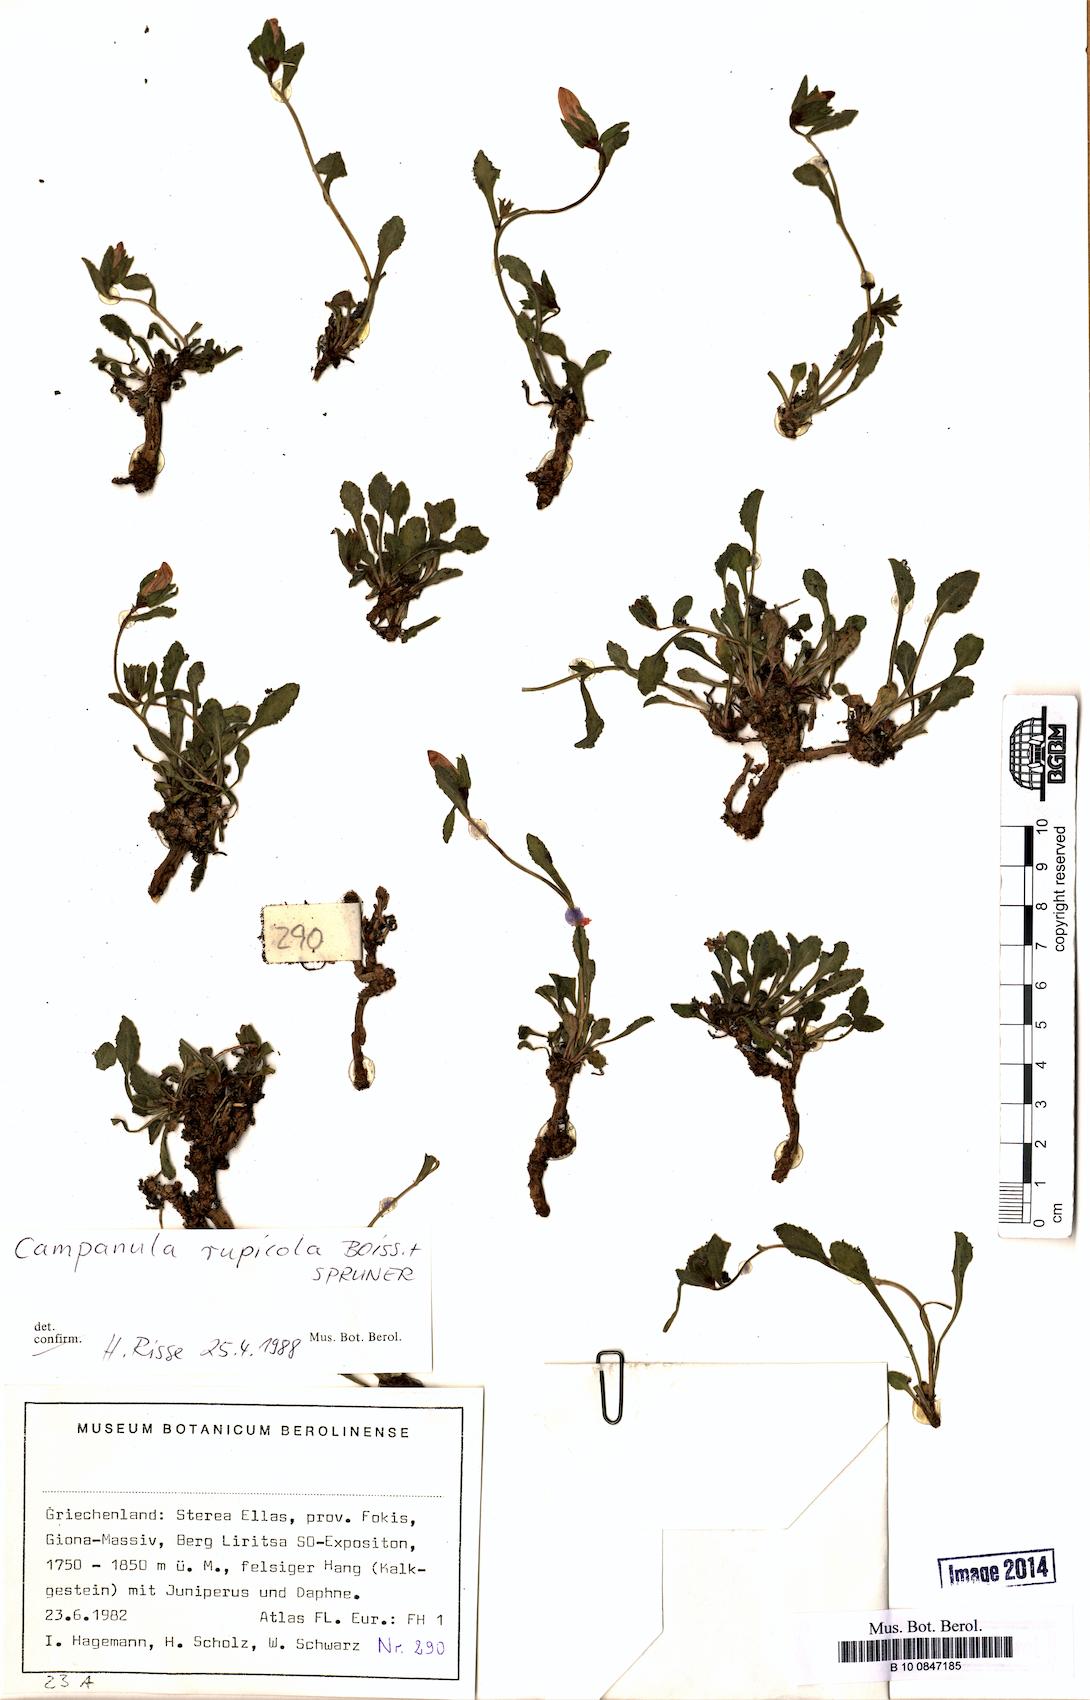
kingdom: Plantae
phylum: Tracheophyta
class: Magnoliopsida
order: Asterales
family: Campanulaceae
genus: Campanula
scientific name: Campanula rupicola
